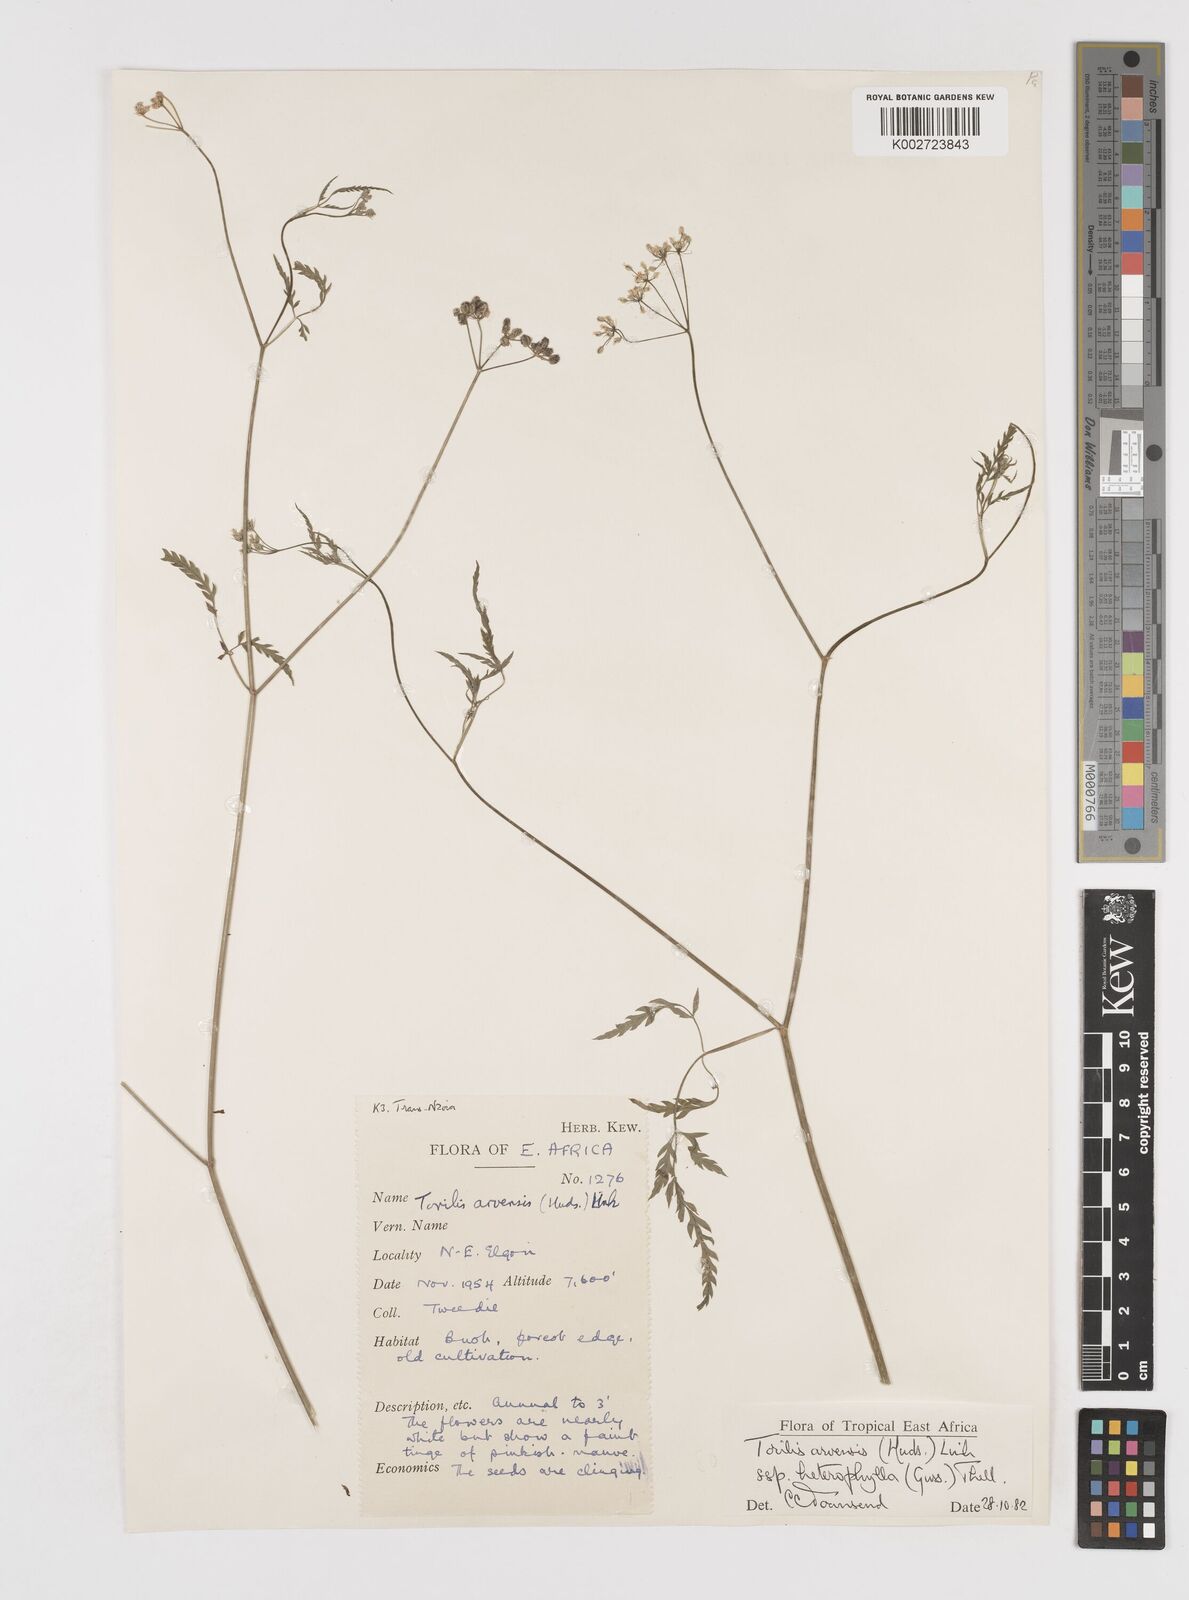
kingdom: Plantae
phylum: Tracheophyta
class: Magnoliopsida
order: Apiales
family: Apiaceae
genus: Torilis
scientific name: Torilis arvensis
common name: Spreading hedge-parsley
